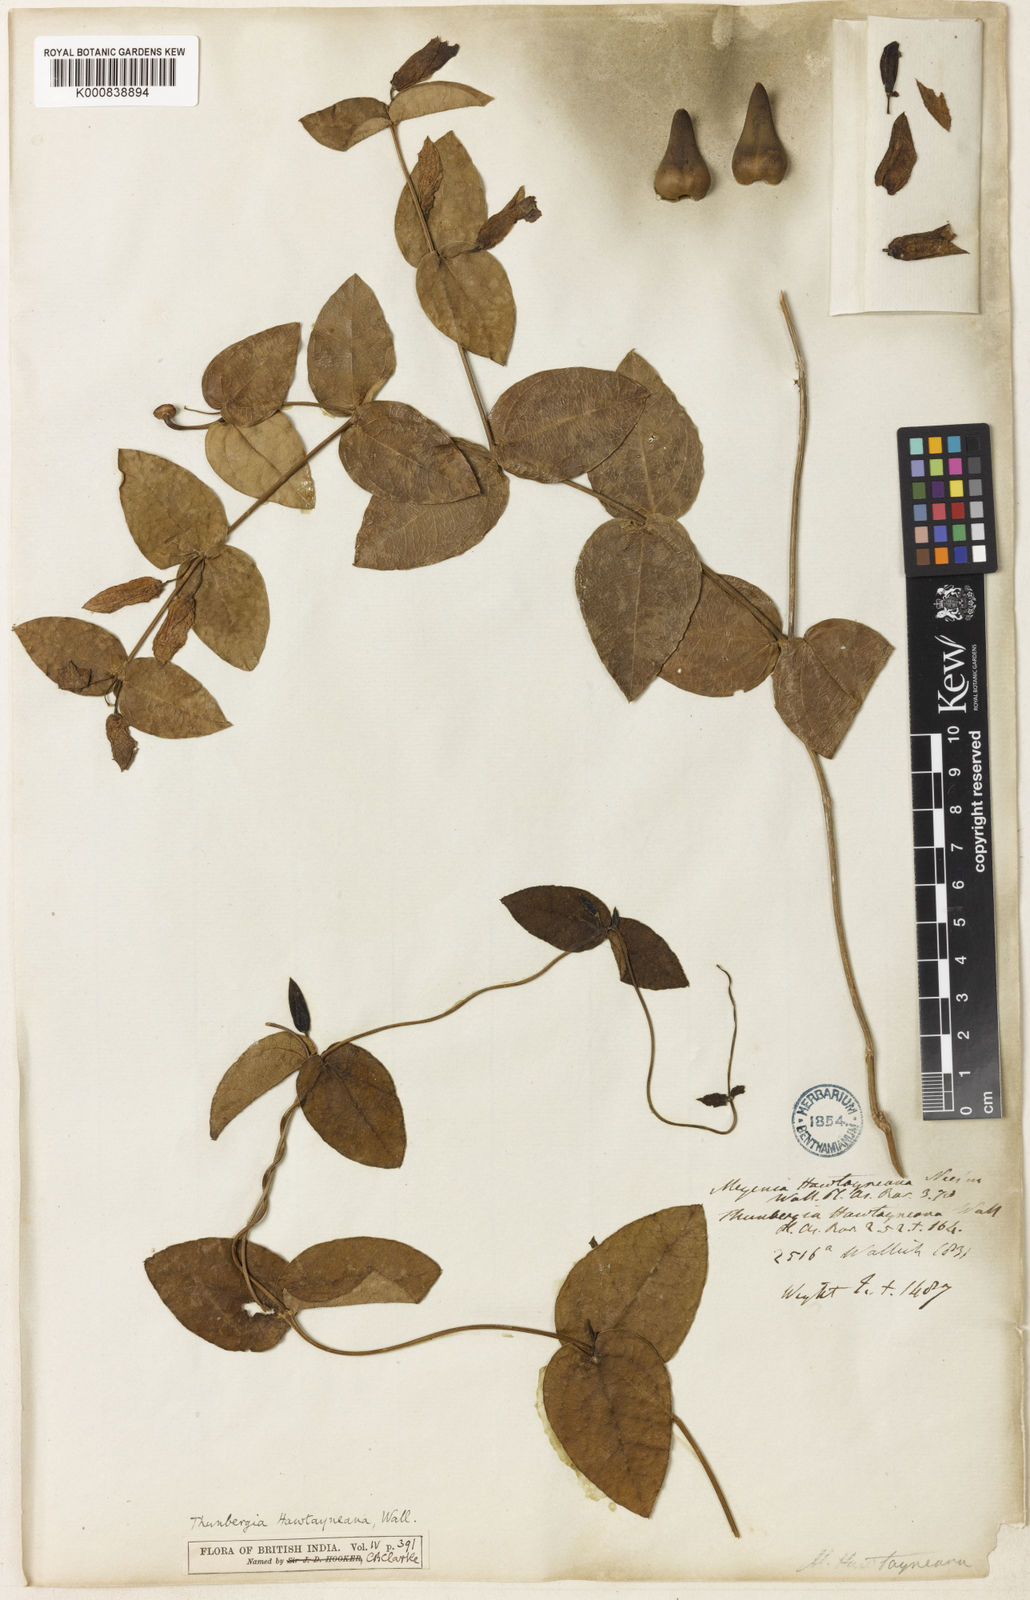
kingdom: Plantae
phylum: Tracheophyta
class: Magnoliopsida
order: Lamiales
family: Acanthaceae
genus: Meyenia
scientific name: Meyenia hawtayneana
